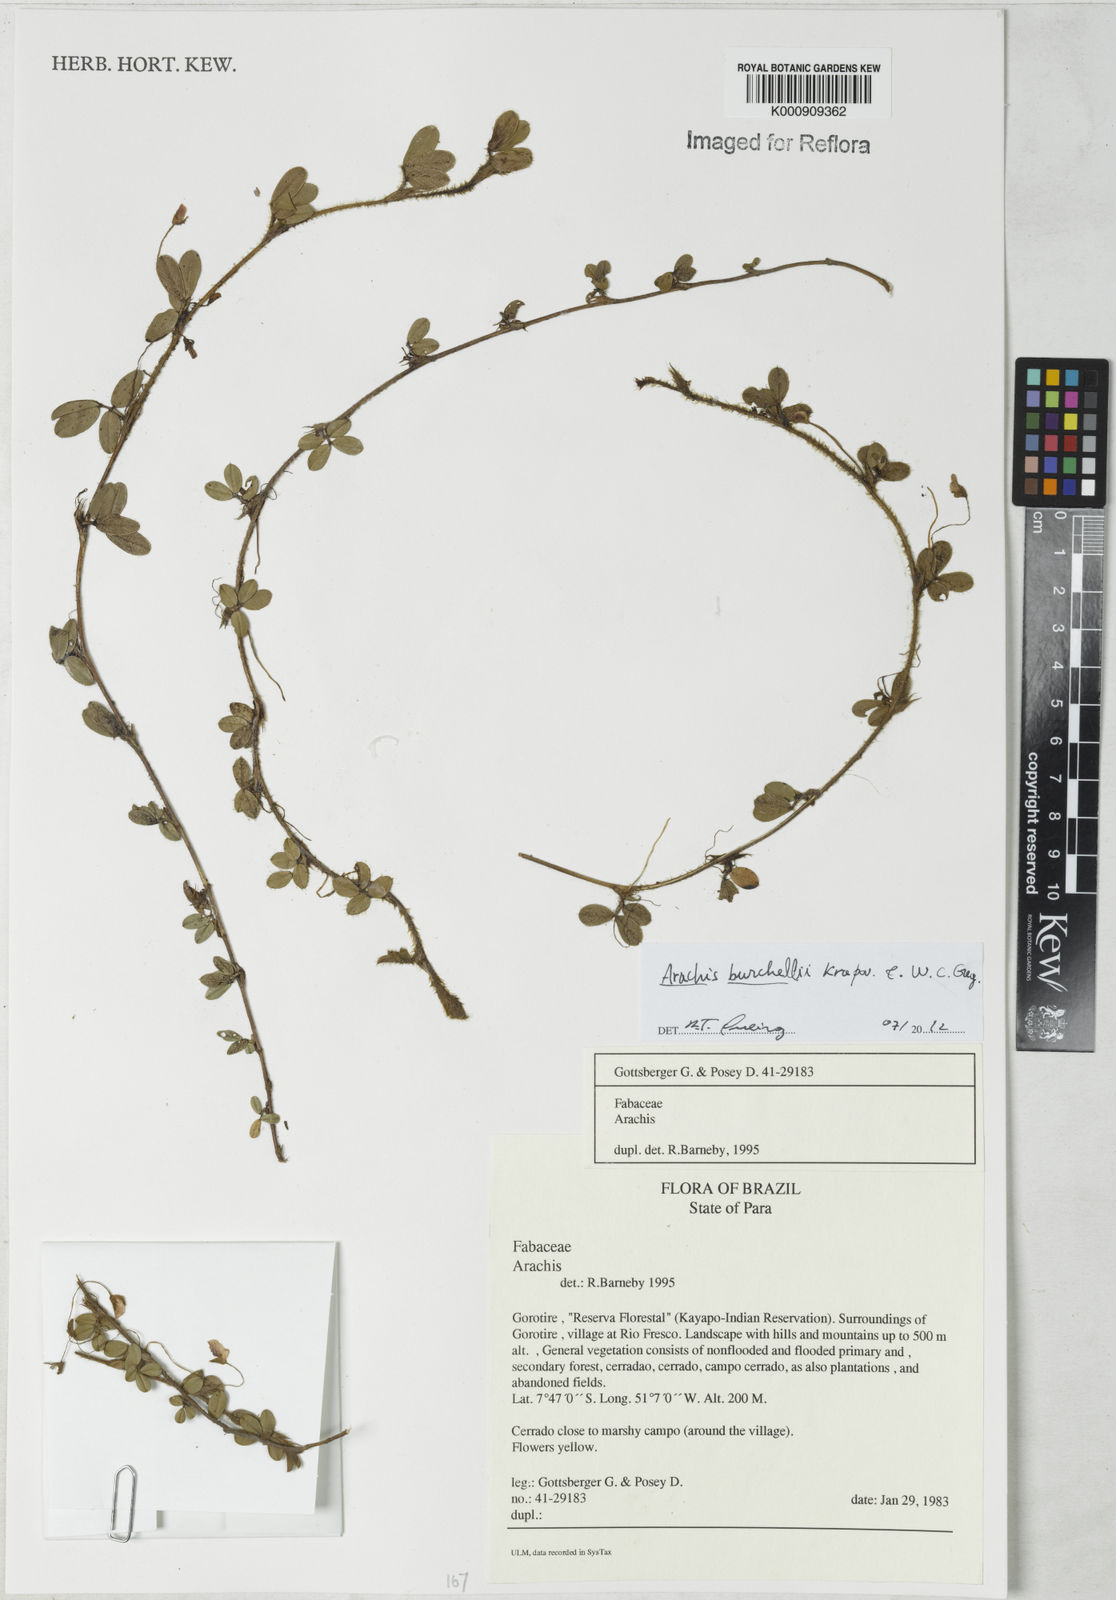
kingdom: Plantae
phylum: Tracheophyta
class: Magnoliopsida
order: Fabales
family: Fabaceae
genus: Arachis
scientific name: Arachis burchellii
